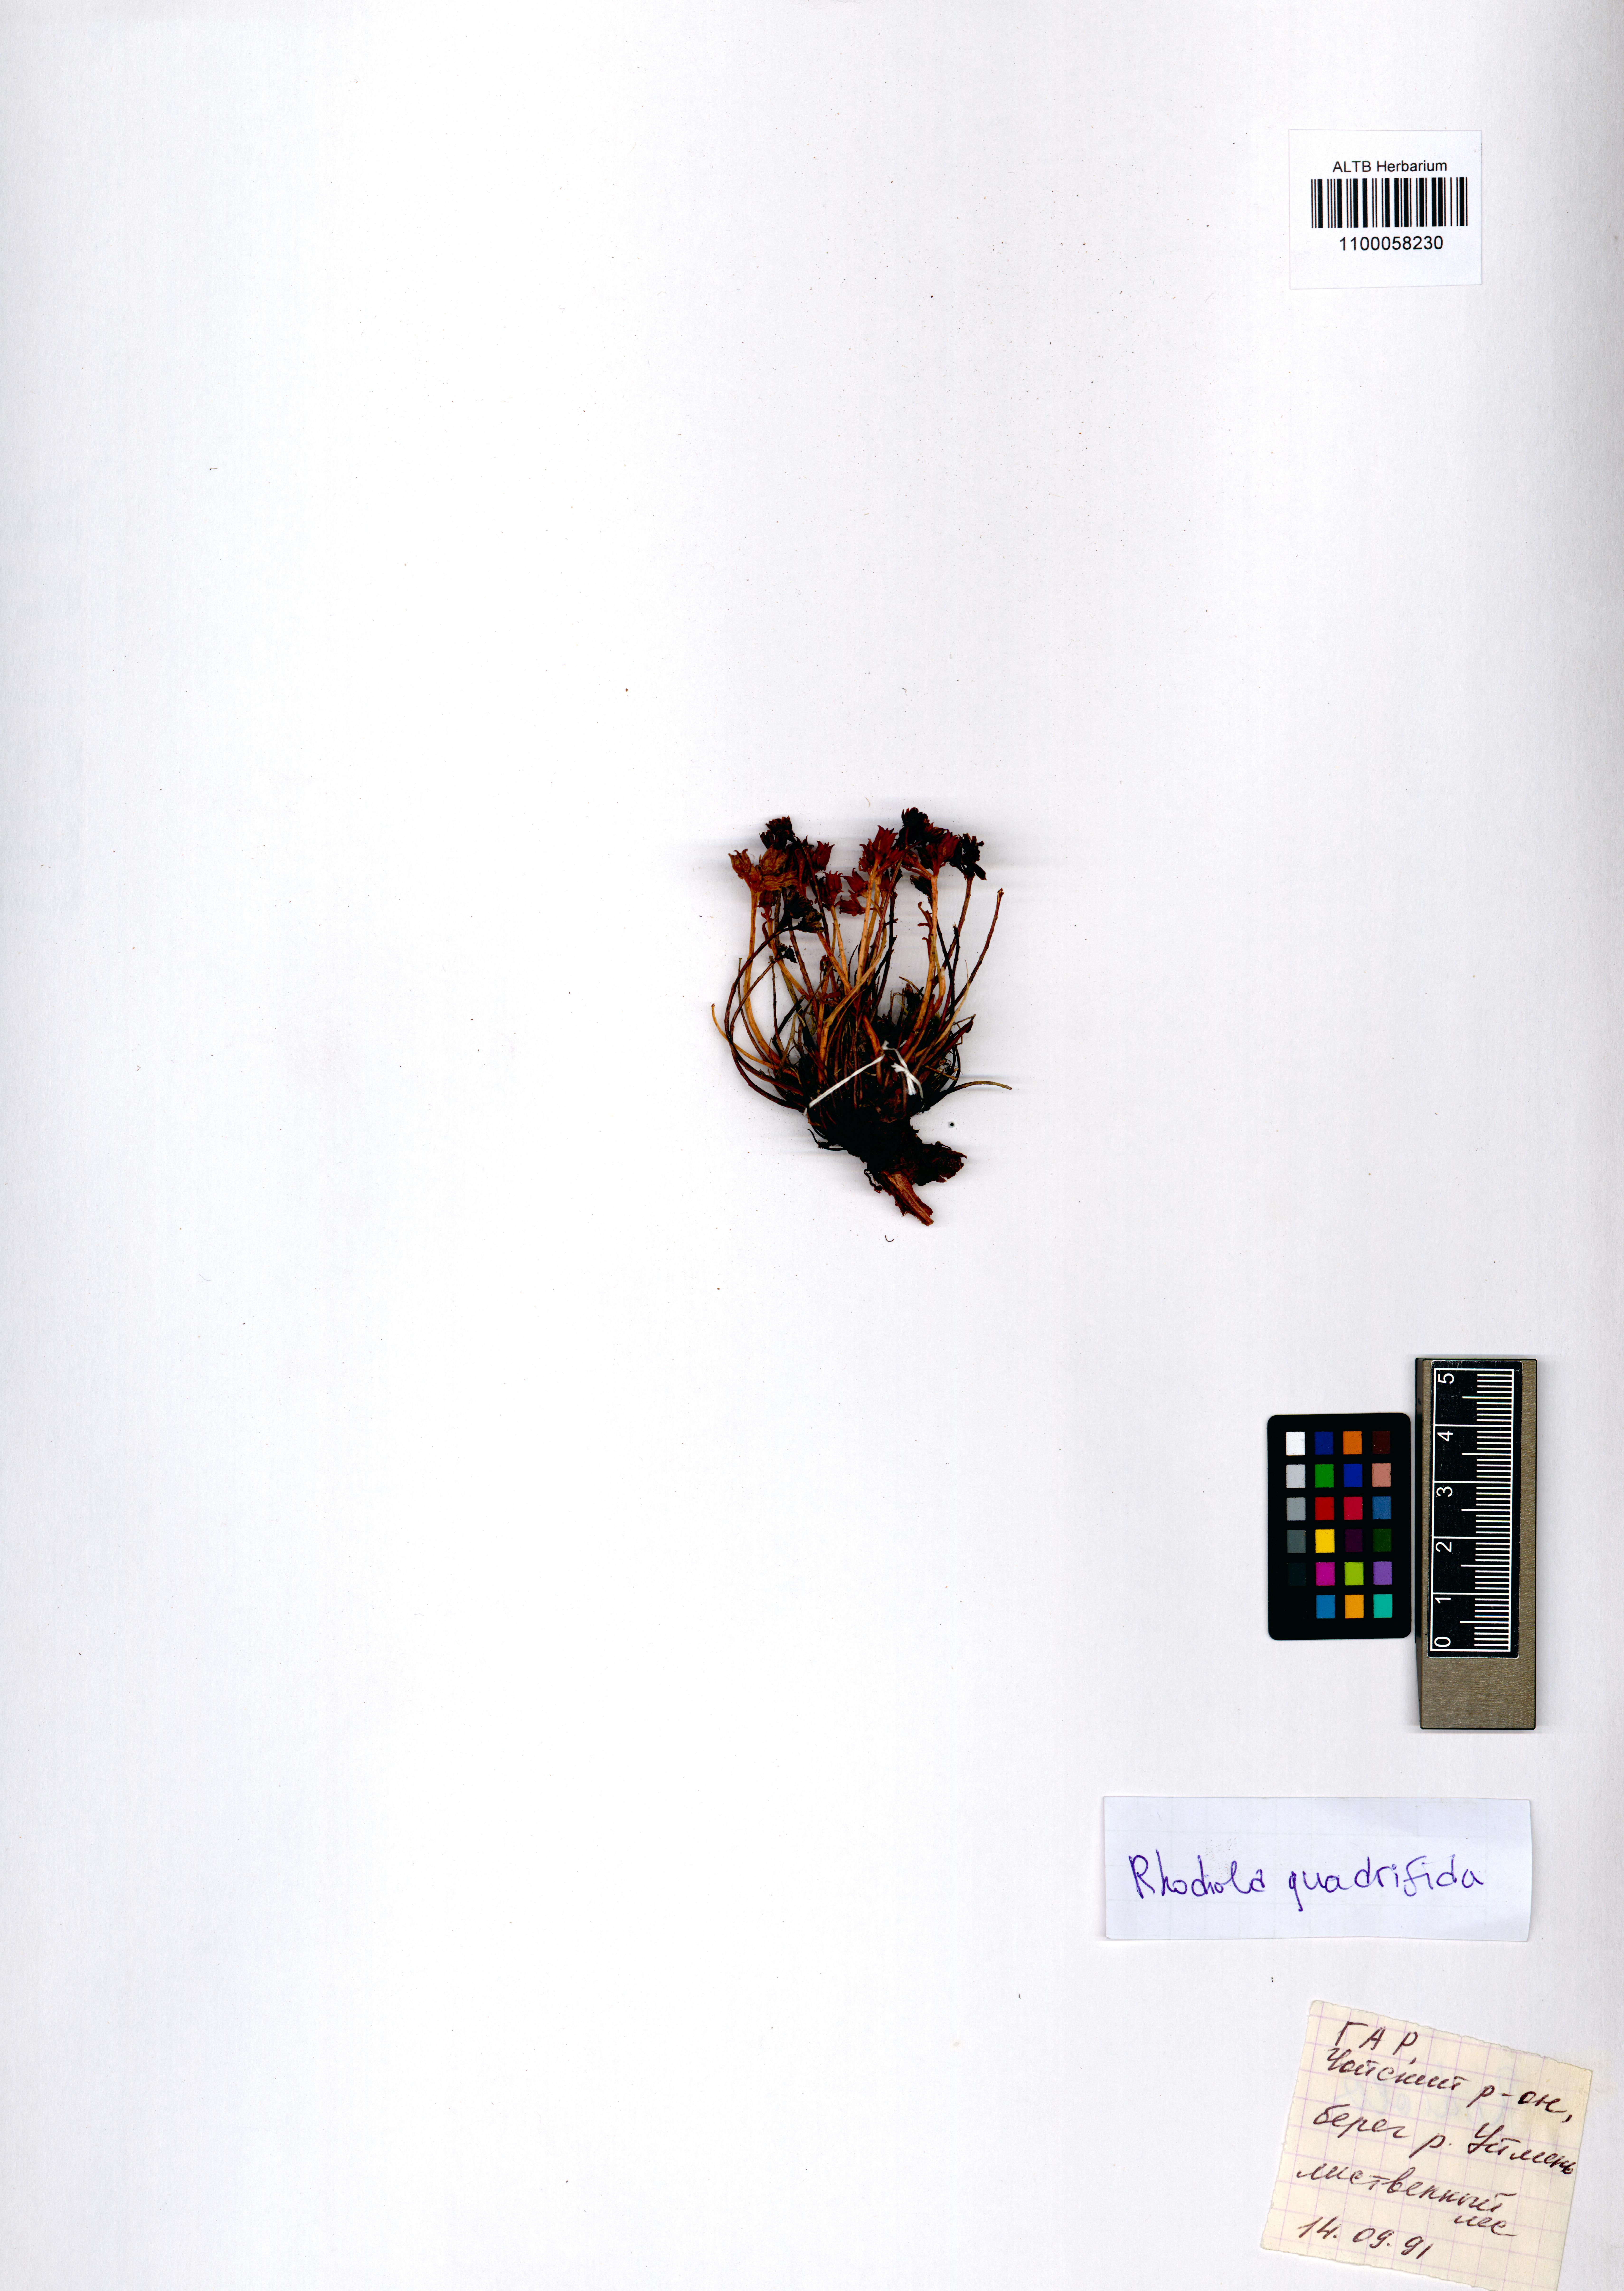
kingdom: Plantae
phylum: Tracheophyta
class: Magnoliopsida
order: Saxifragales
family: Crassulaceae
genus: Rhodiola
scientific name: Rhodiola quadrifida
